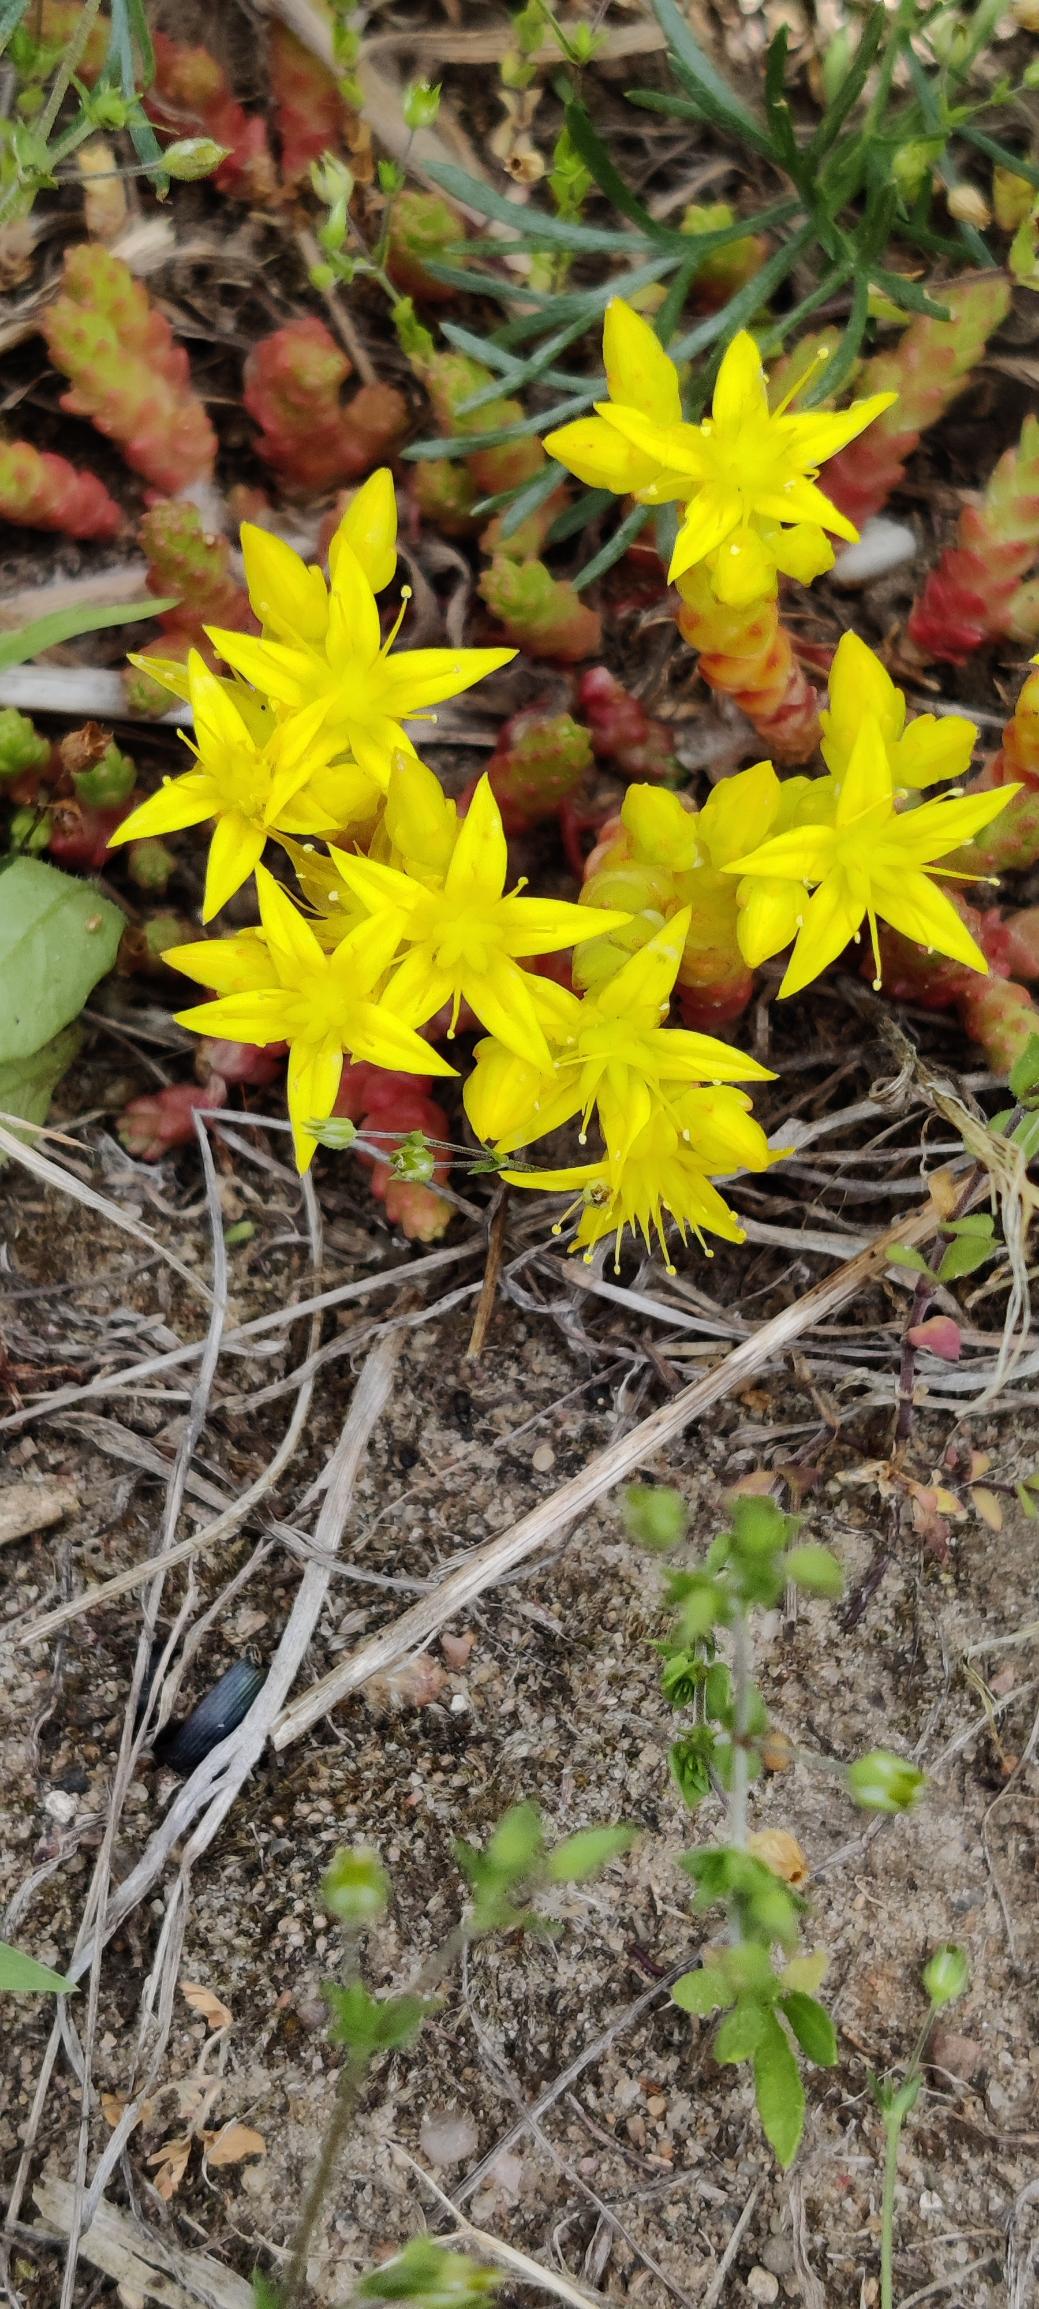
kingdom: Plantae
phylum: Tracheophyta
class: Magnoliopsida
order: Saxifragales
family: Crassulaceae
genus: Sedum
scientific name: Sedum acre
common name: Bidende stenurt
